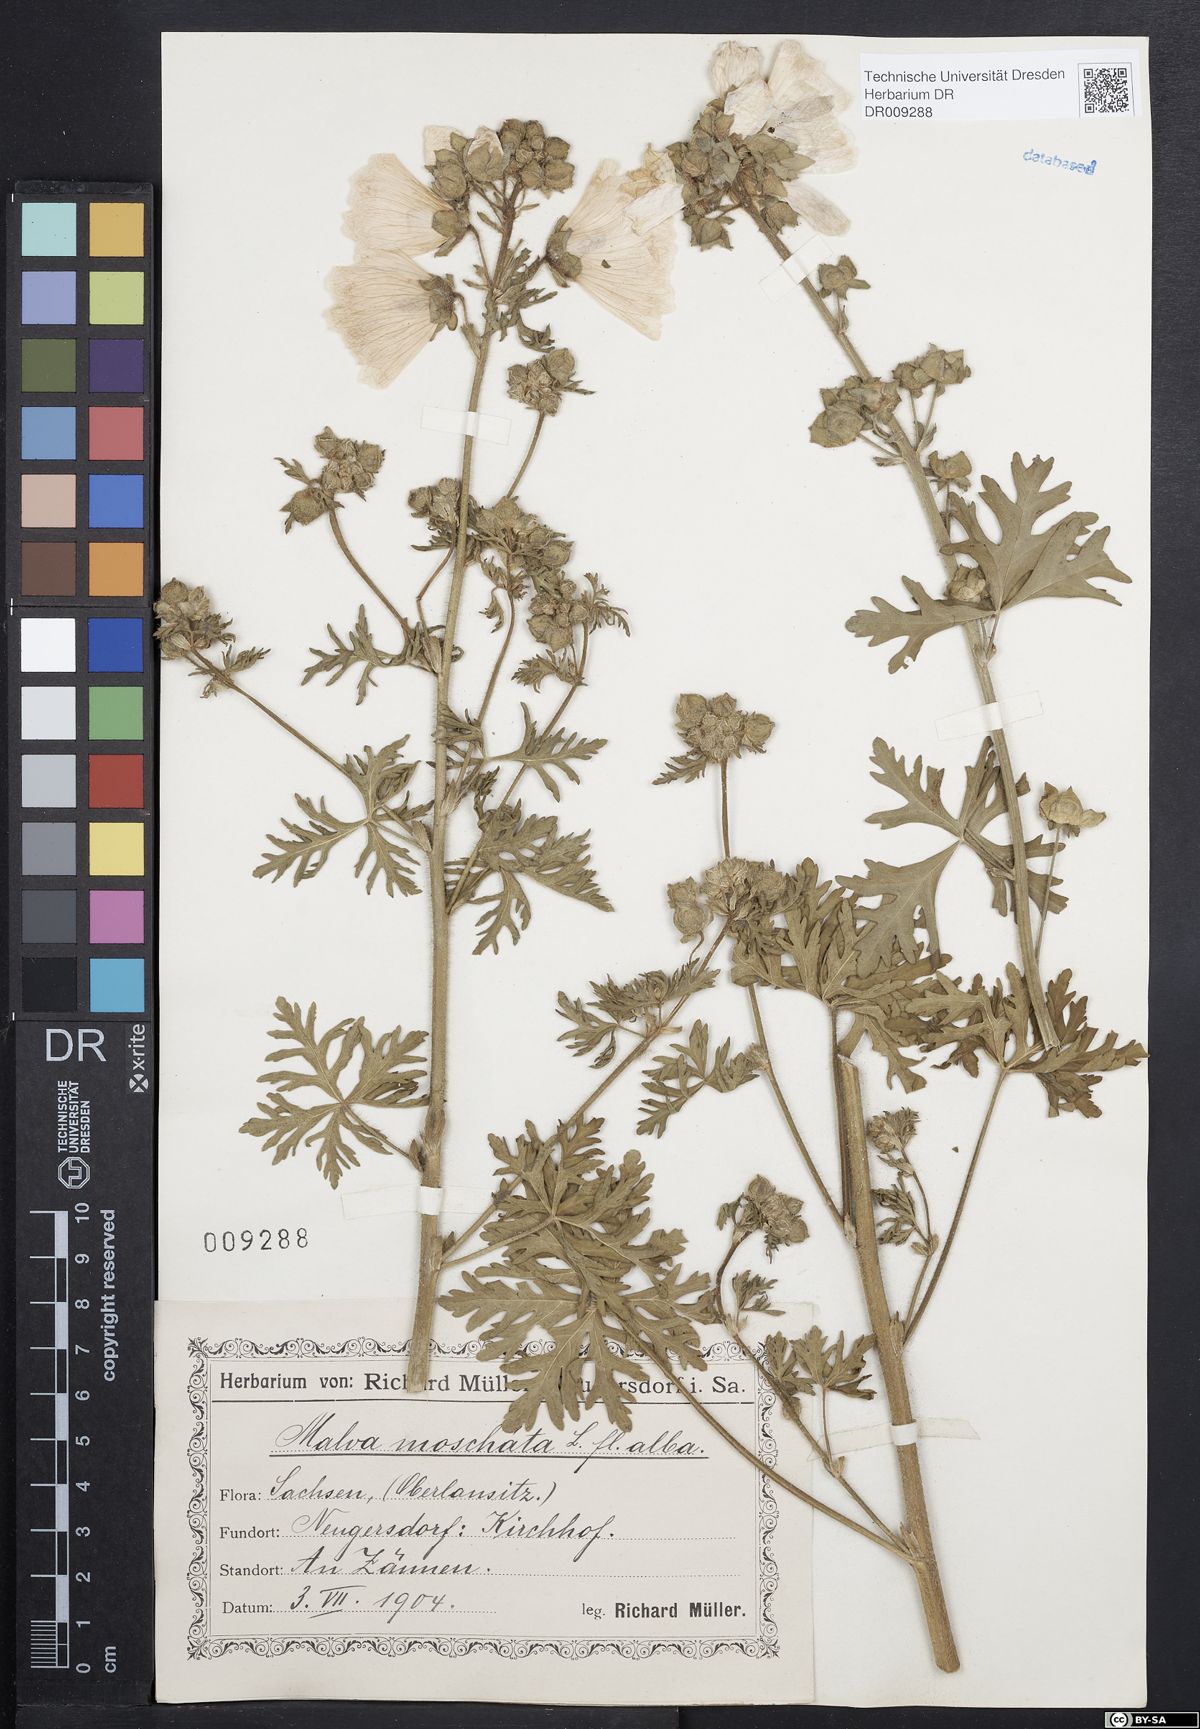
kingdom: Plantae
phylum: Tracheophyta
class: Magnoliopsida
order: Malvales
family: Malvaceae
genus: Malva
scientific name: Malva moschata
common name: Musk mallow
